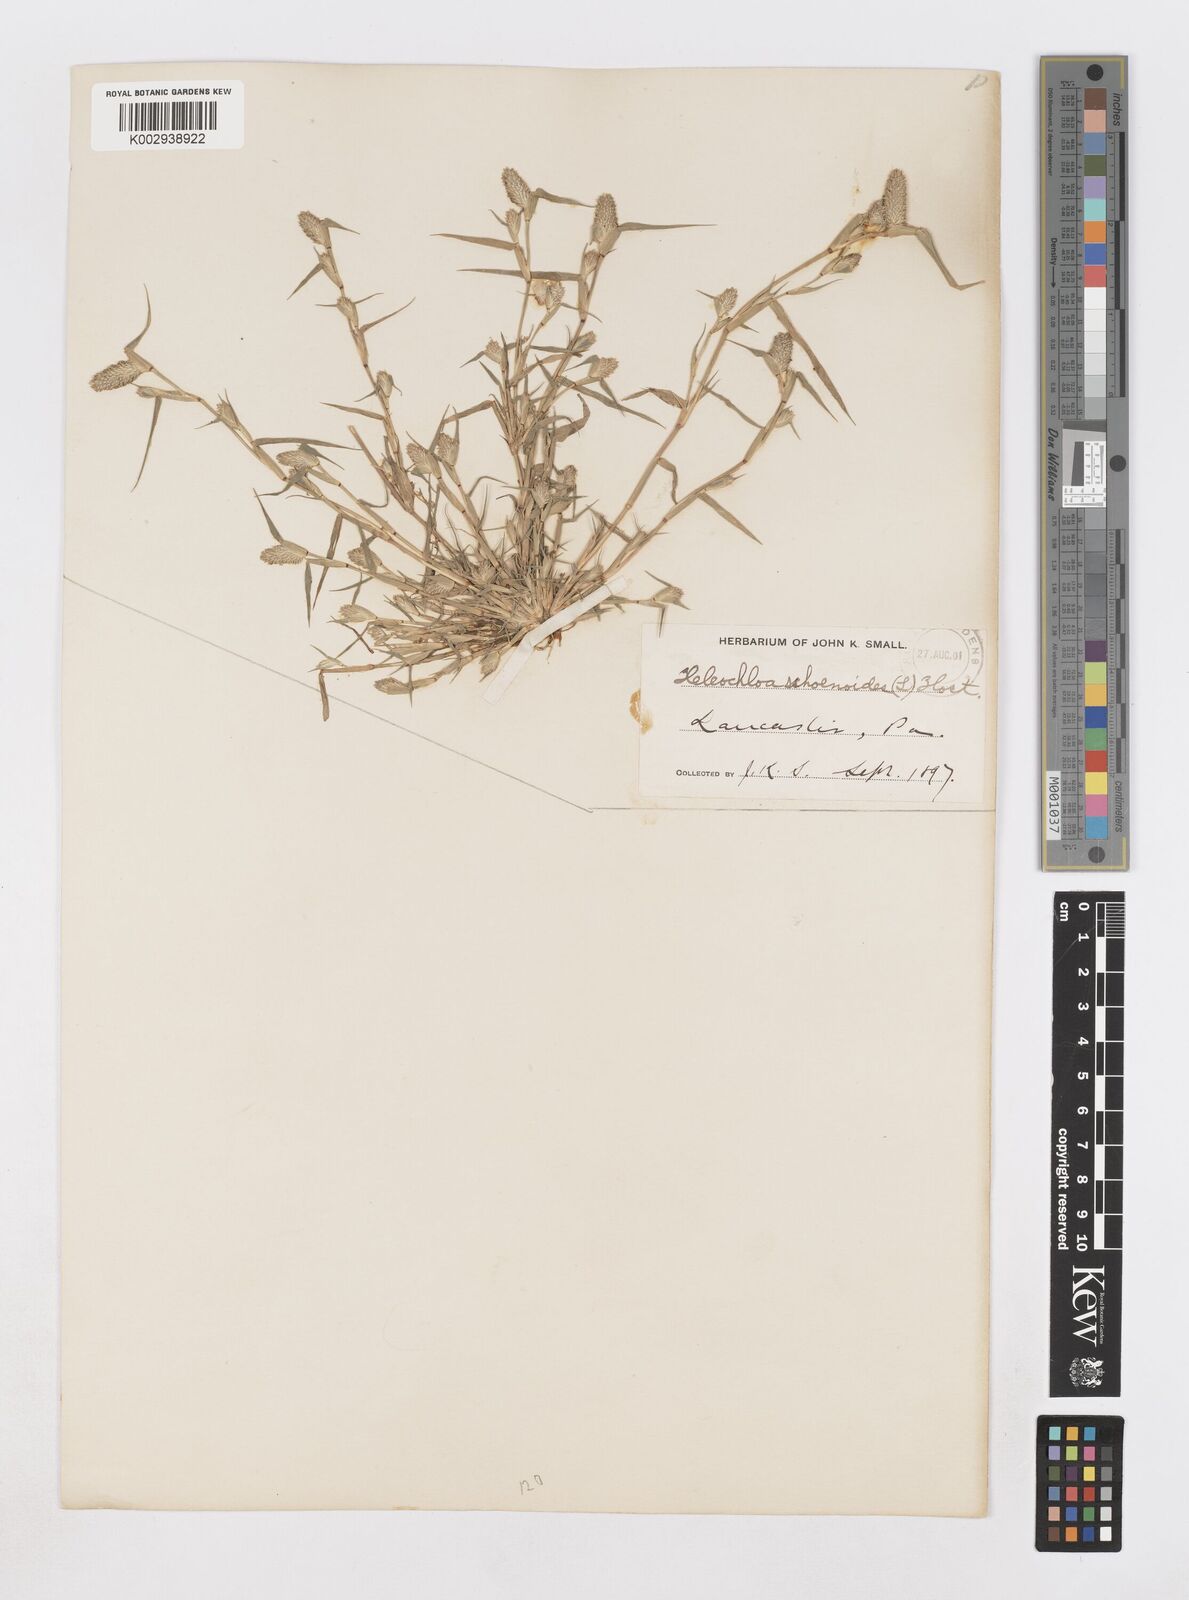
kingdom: Animalia
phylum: Arthropoda
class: Insecta
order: Coleoptera
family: Tenebrionidae
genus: Crypsis
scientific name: Crypsis
